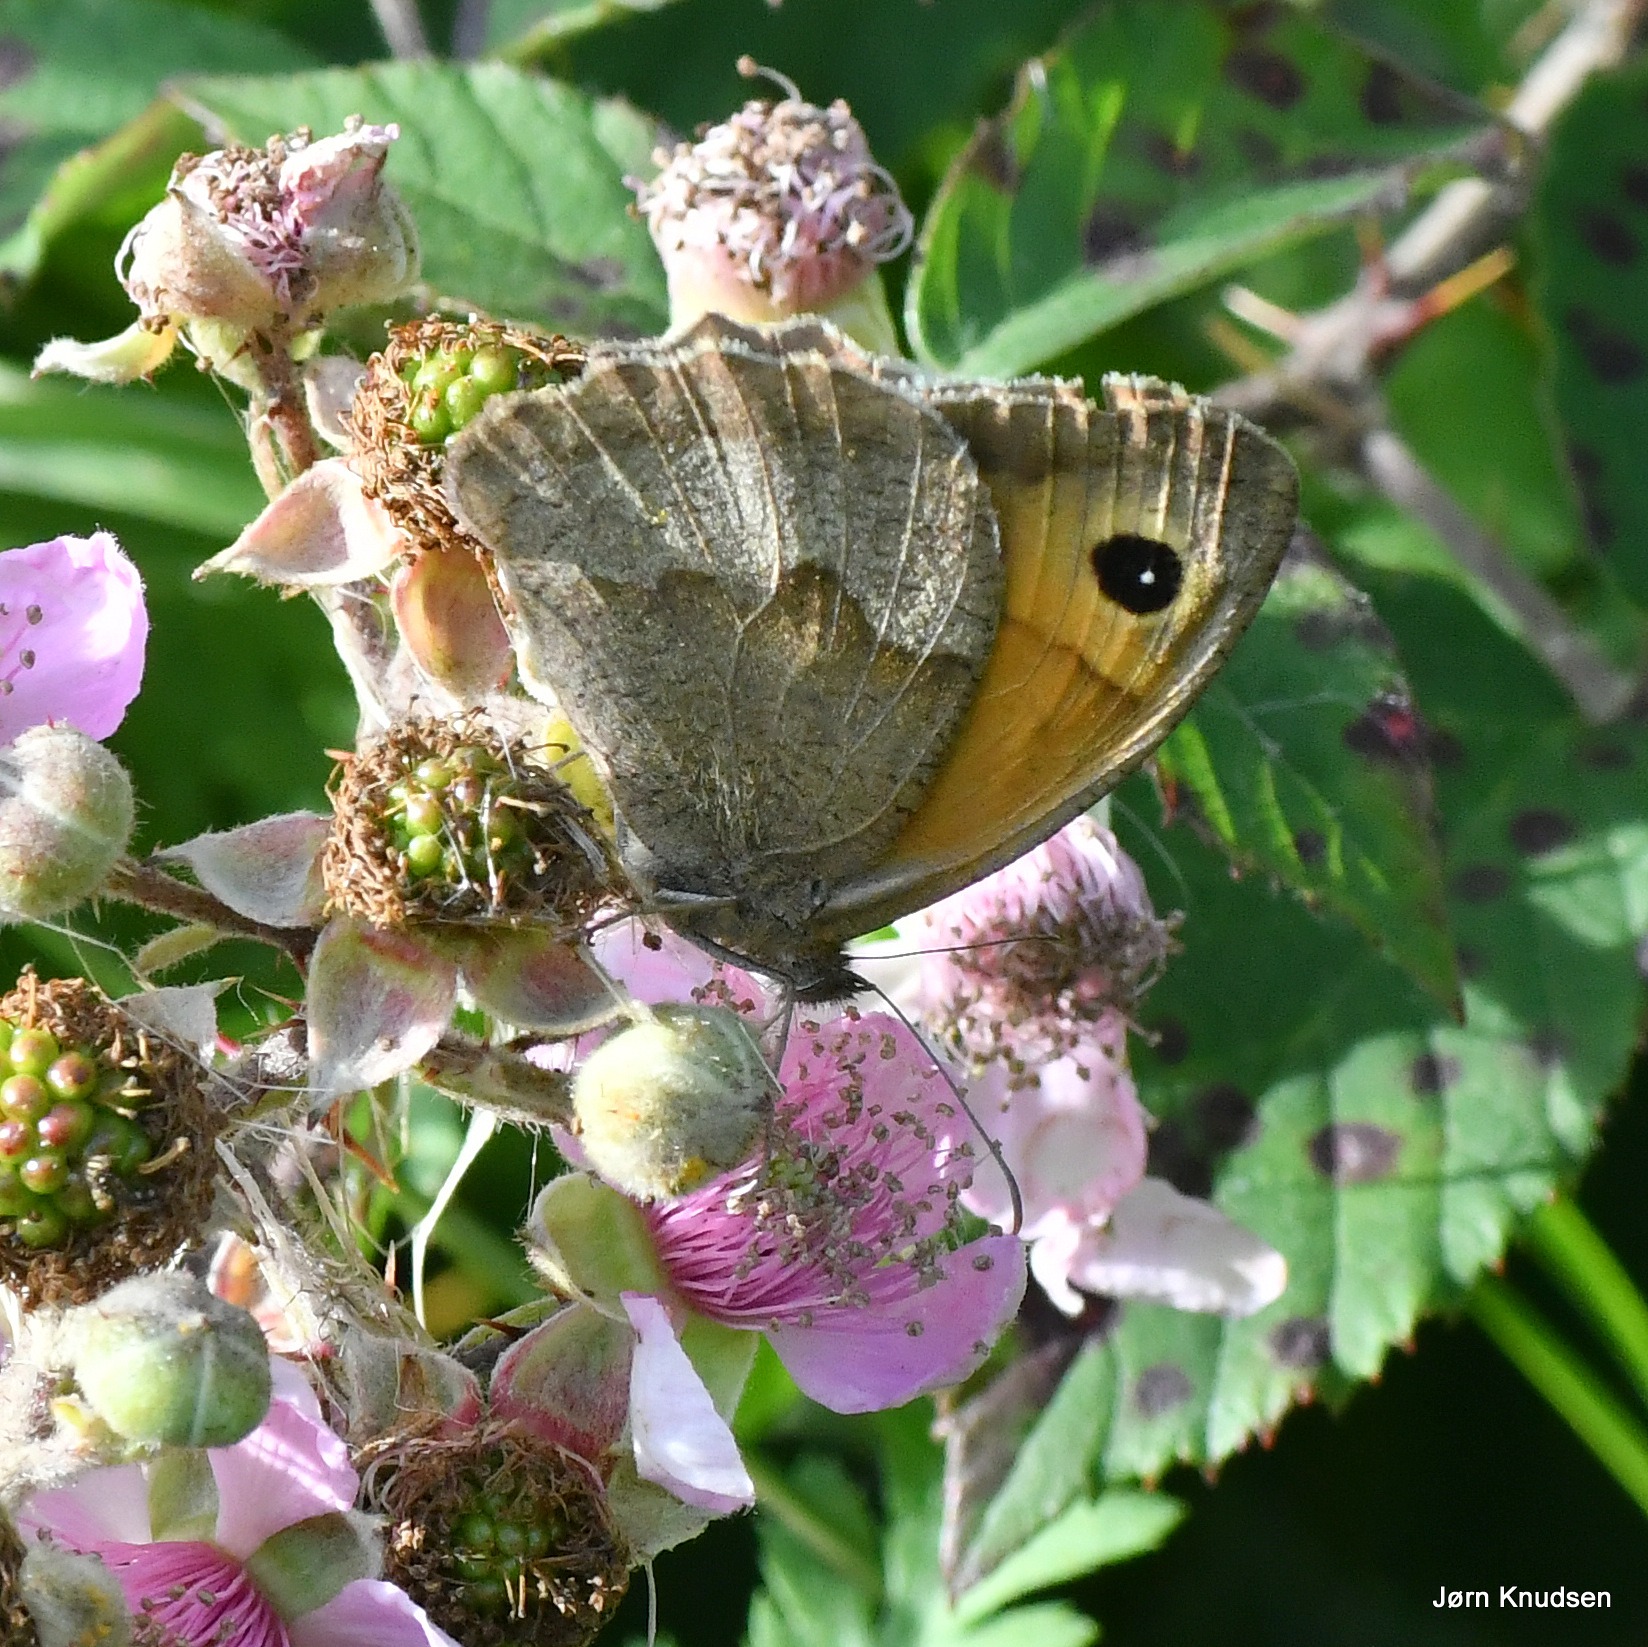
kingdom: Animalia
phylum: Arthropoda
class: Insecta
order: Lepidoptera
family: Nymphalidae
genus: Maniola
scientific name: Maniola jurtina
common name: Græsrandøje
